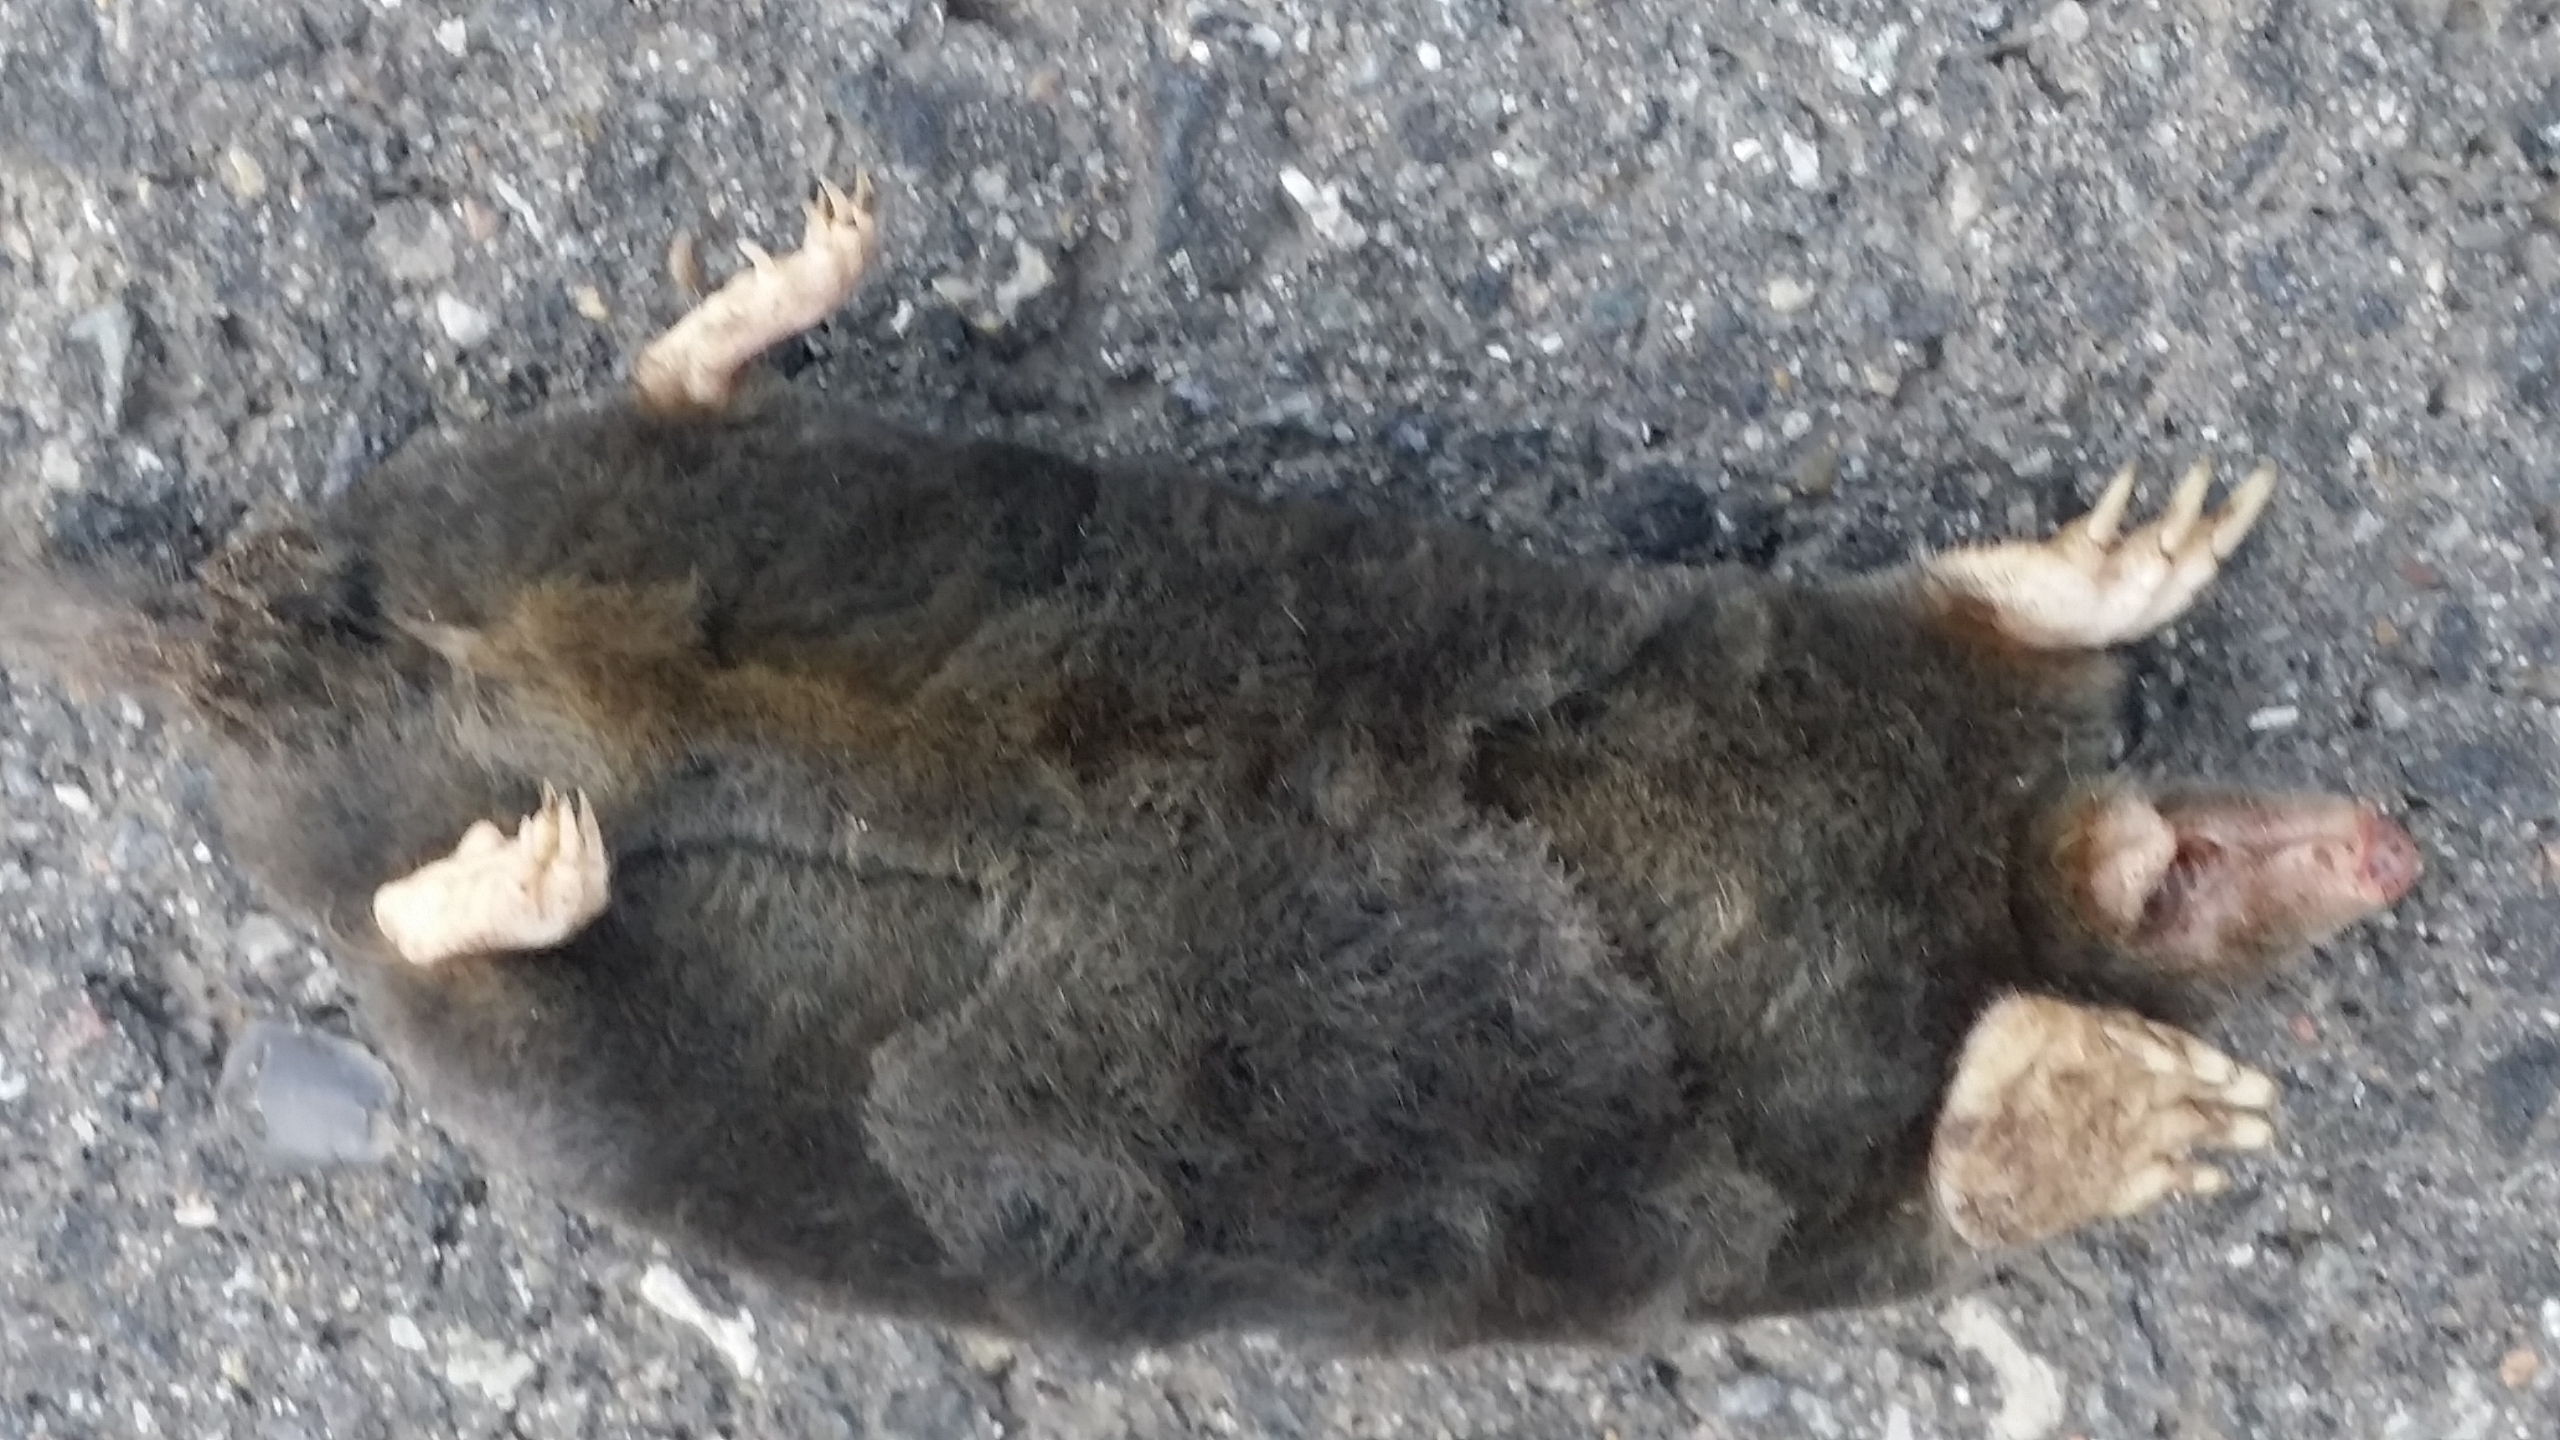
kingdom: Animalia
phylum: Chordata
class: Mammalia
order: Soricomorpha
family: Talpidae
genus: Talpa
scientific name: Talpa europaea
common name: Muldvarp
